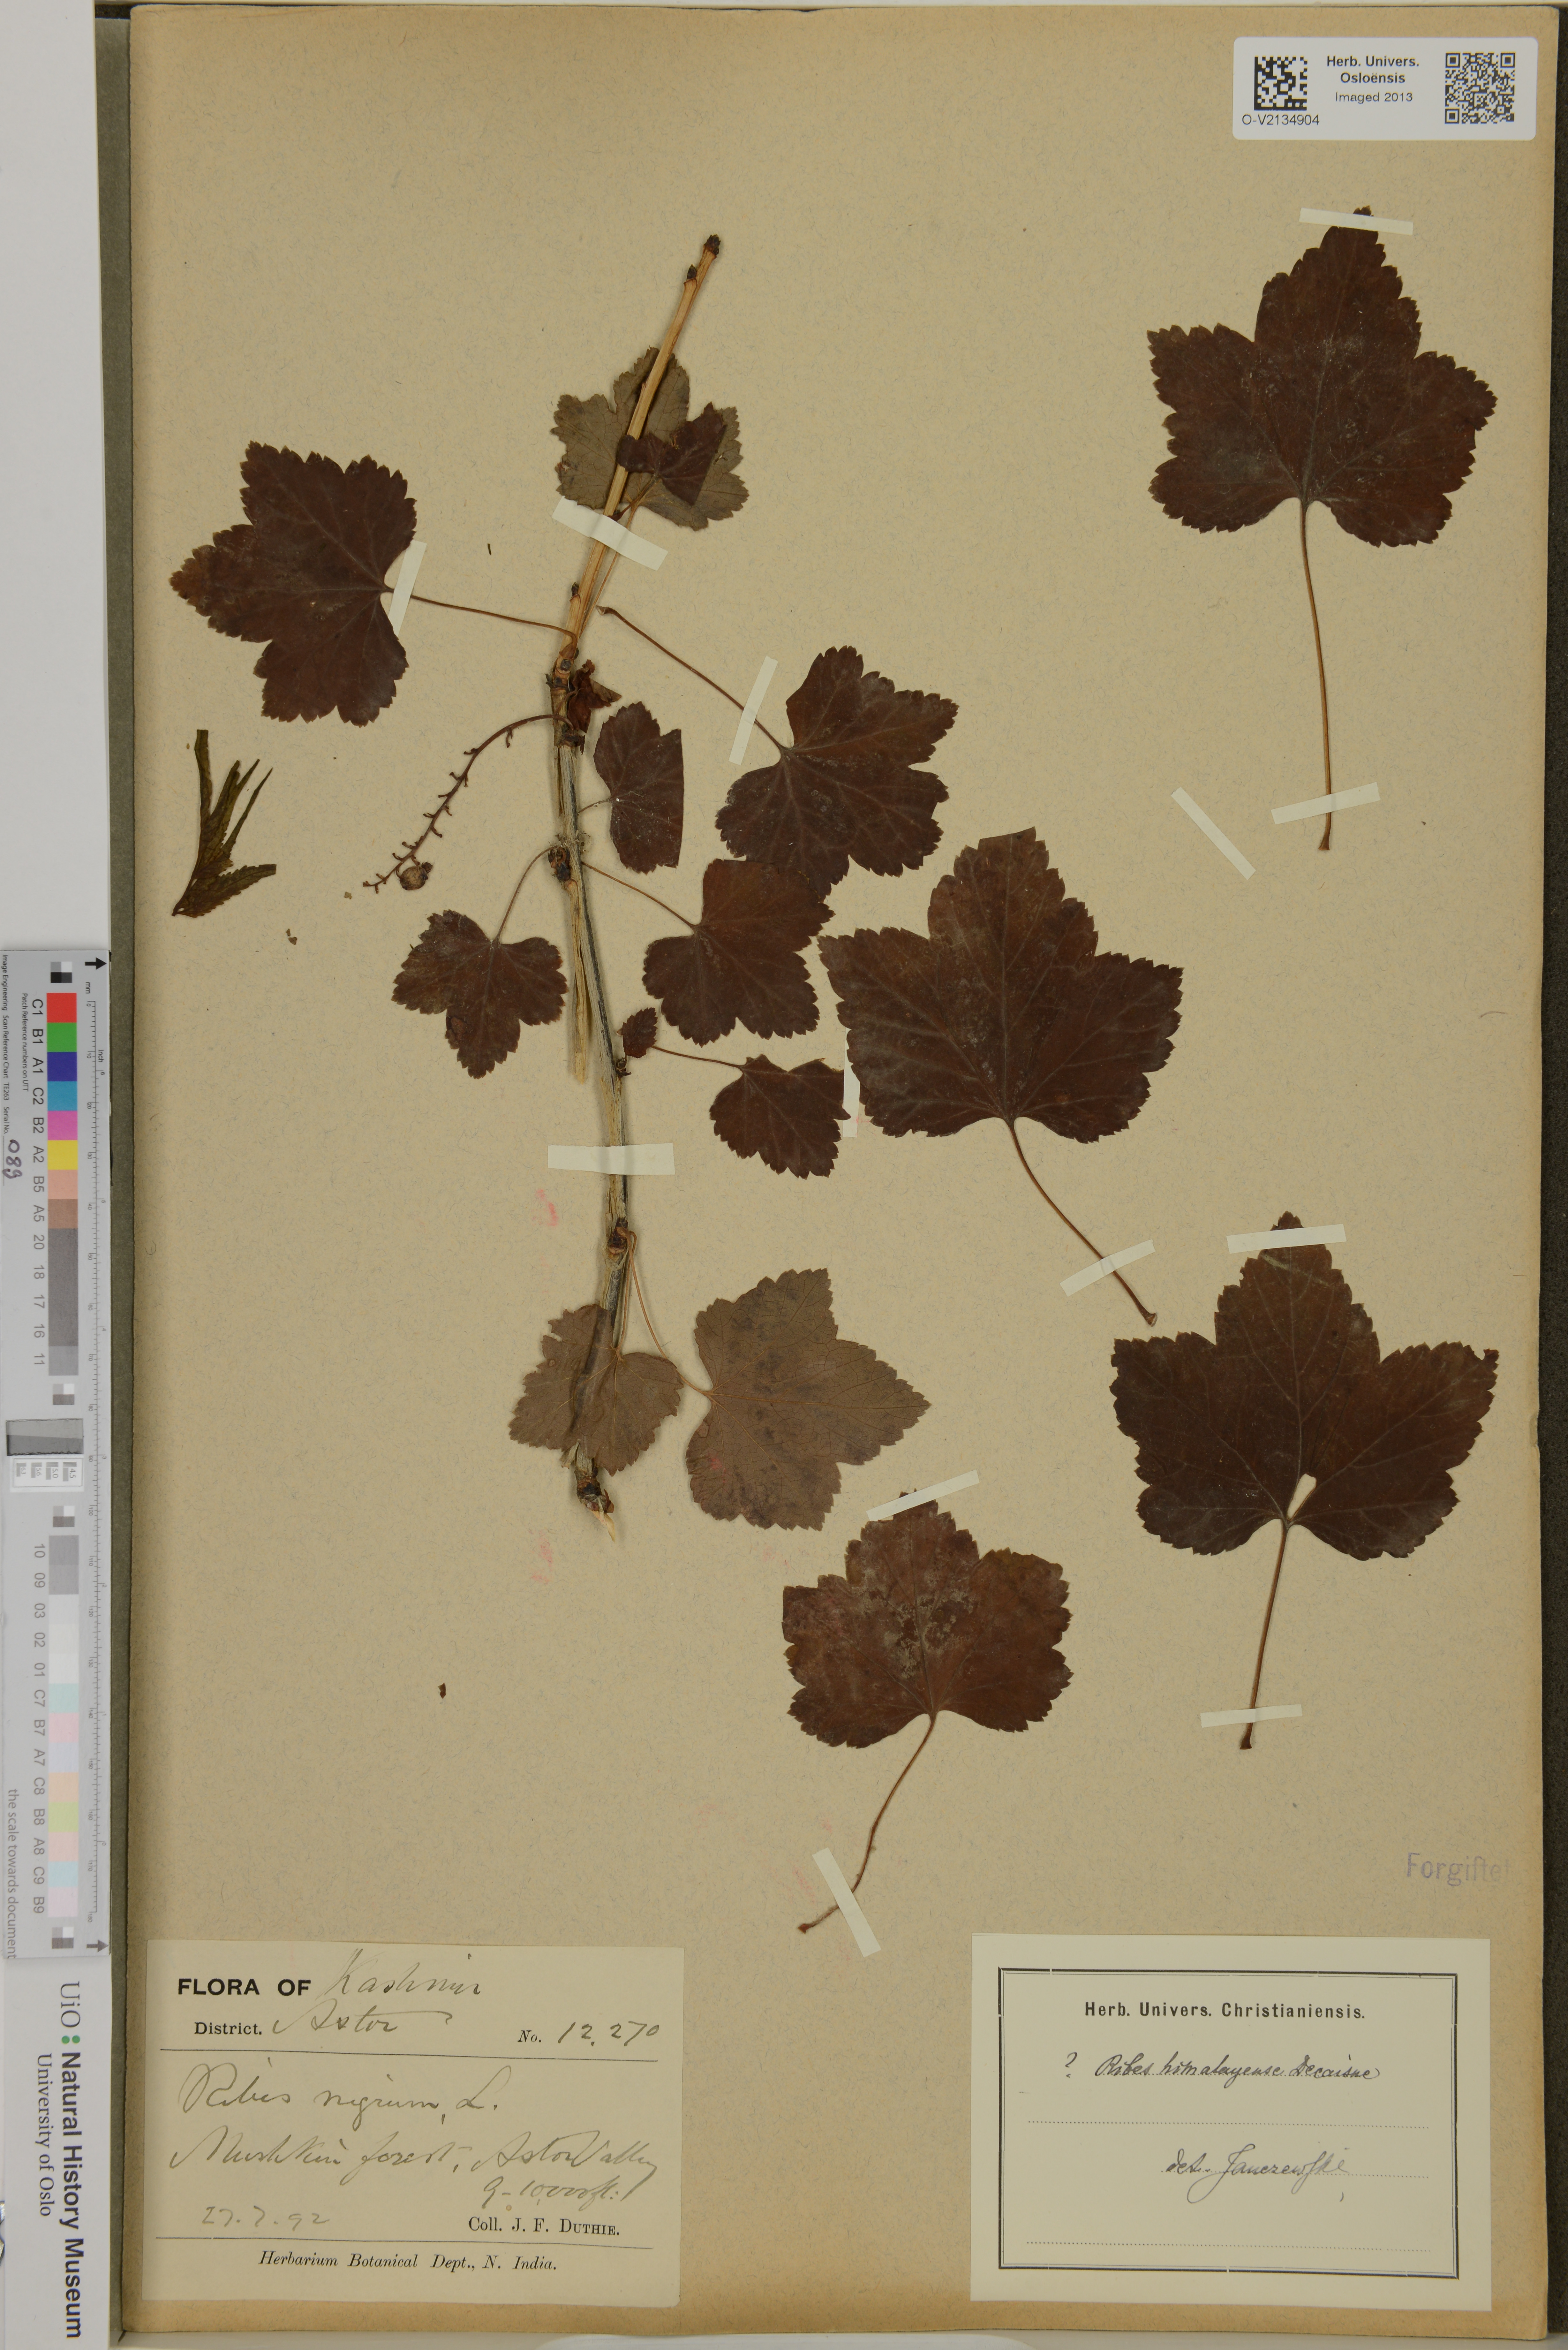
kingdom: Plantae
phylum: Tracheophyta
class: Magnoliopsida
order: Saxifragales
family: Grossulariaceae
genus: Ribes
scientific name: Ribes himalense
